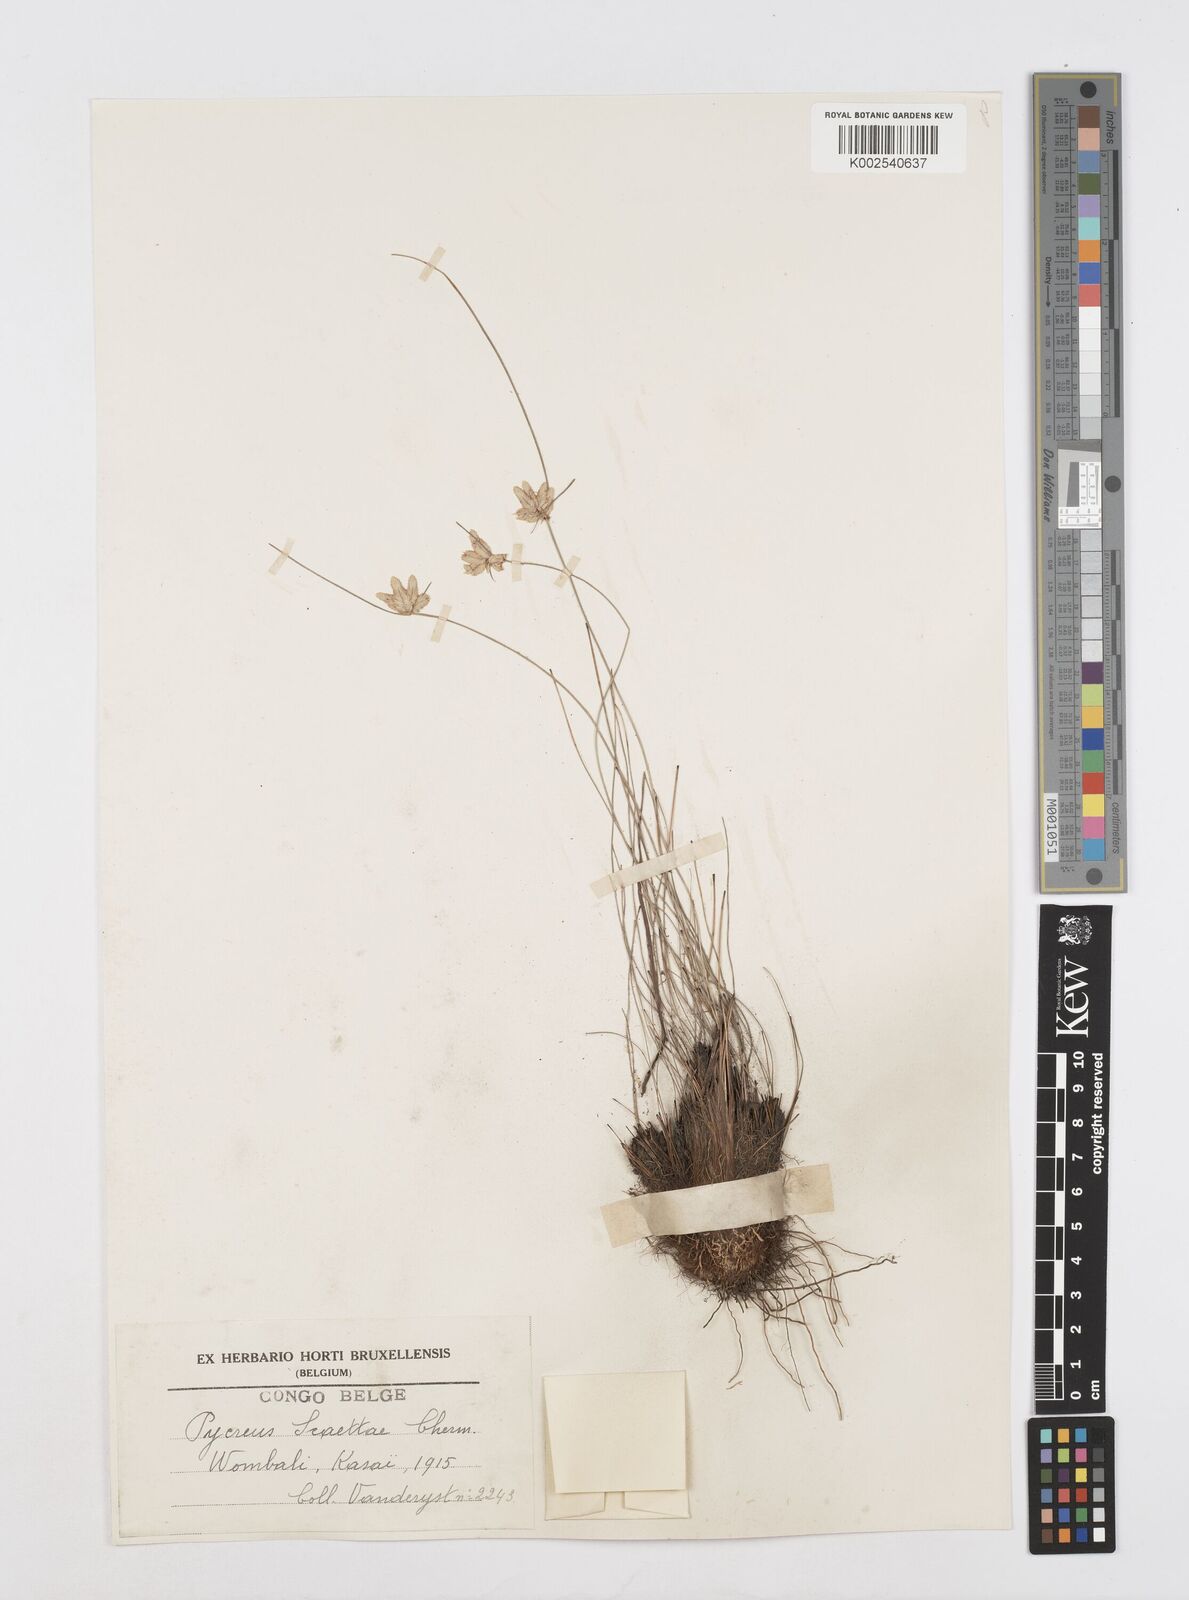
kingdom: Plantae
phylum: Tracheophyta
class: Liliopsida
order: Poales
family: Cyperaceae
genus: Cyperus
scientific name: Cyperus scaettae
